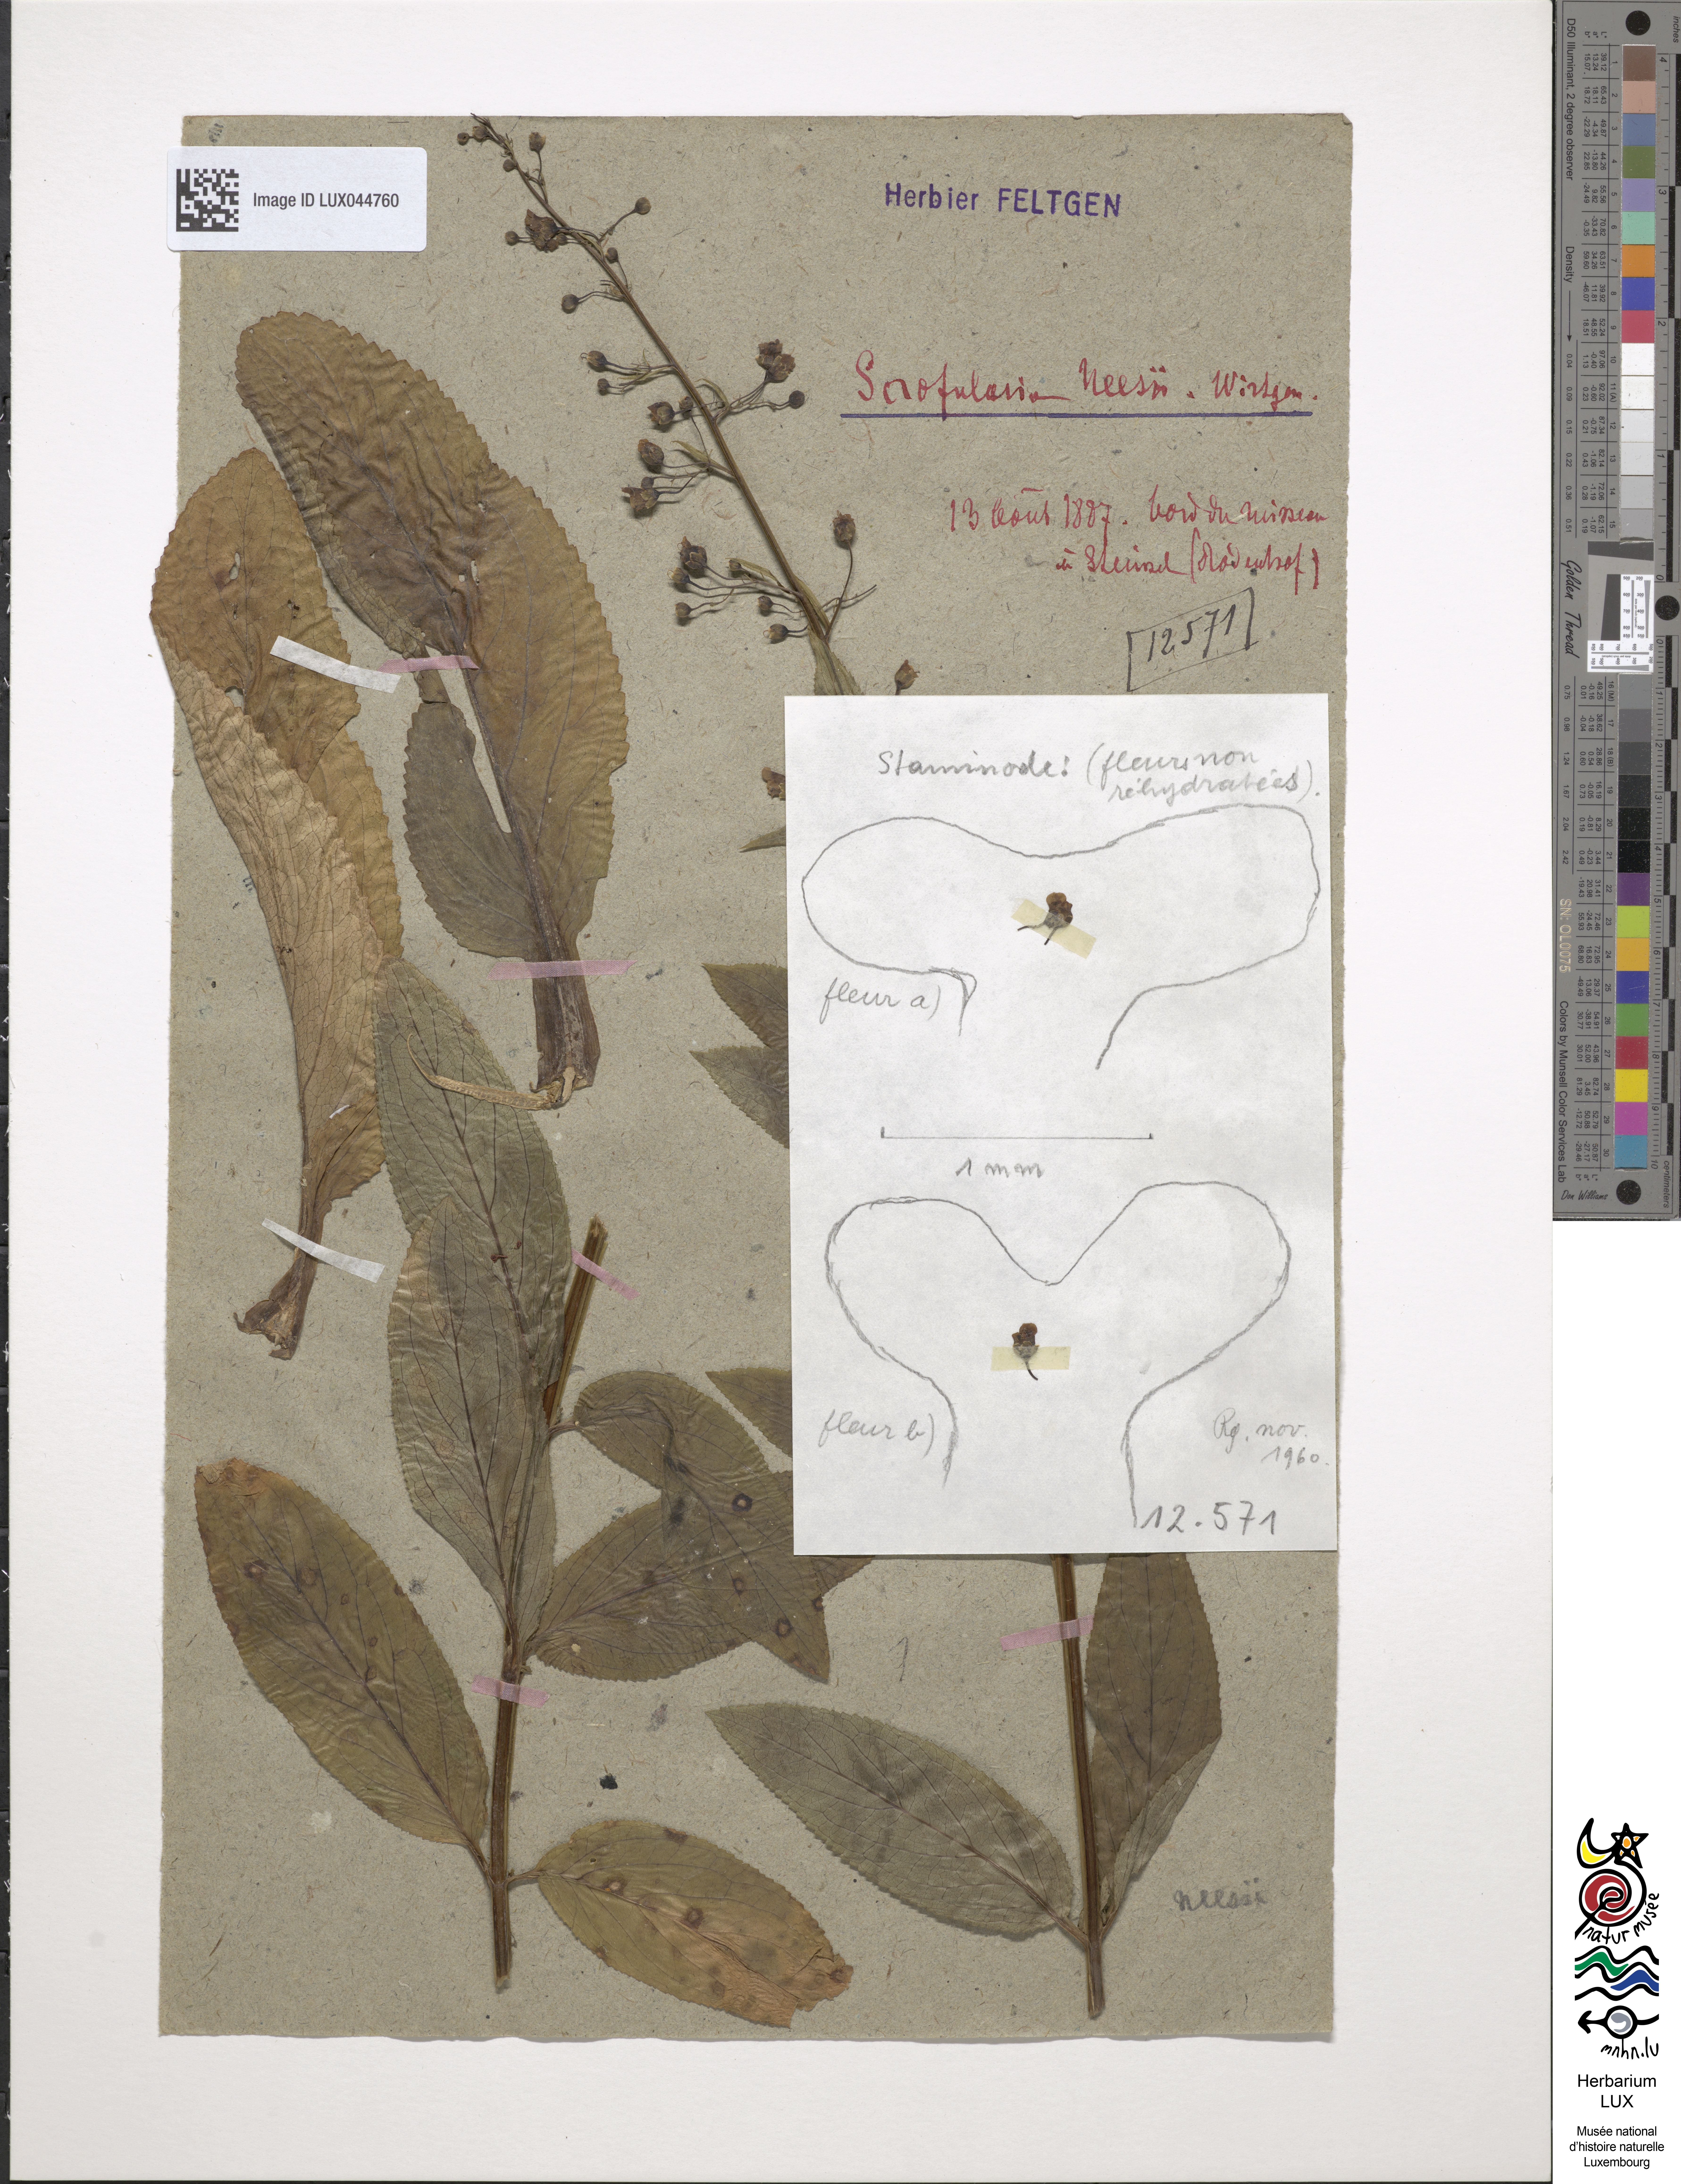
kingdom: Plantae
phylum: Tracheophyta
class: Magnoliopsida
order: Lamiales
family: Scrophulariaceae
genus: Scrophularia
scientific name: Scrophularia umbrosa
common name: Green figwort
